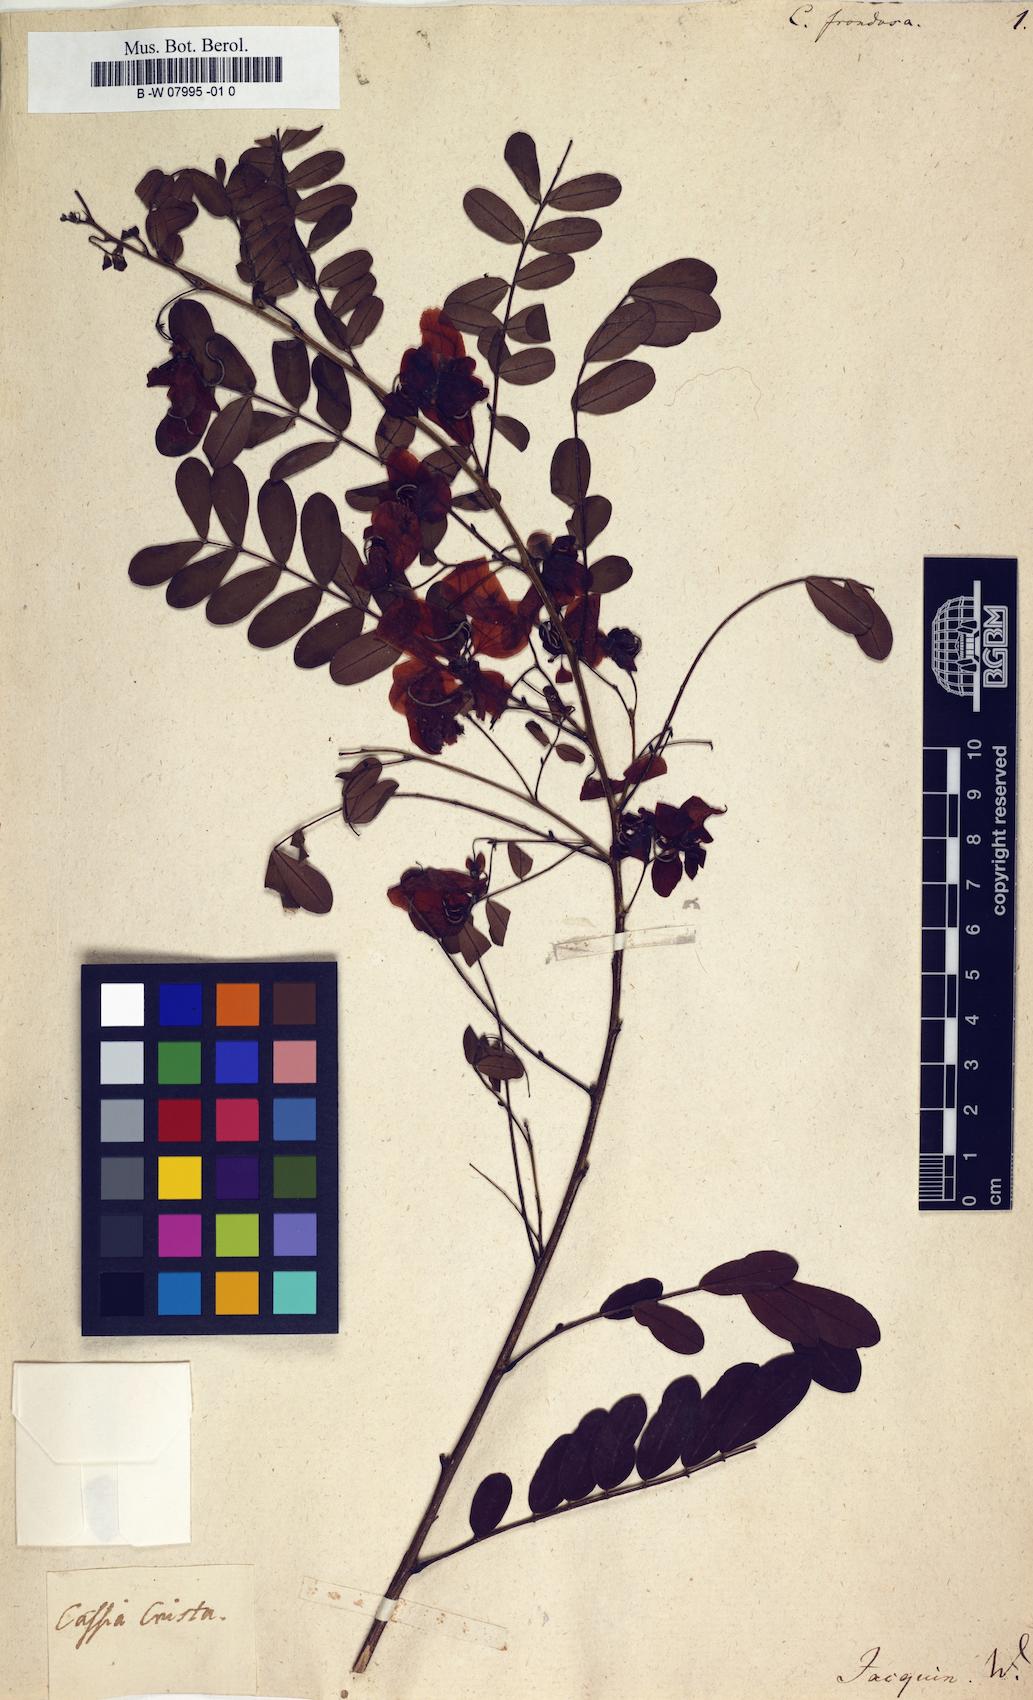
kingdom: Plantae
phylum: Tracheophyta
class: Magnoliopsida
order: Fabales
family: Fabaceae
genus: Senna
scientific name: Senna
